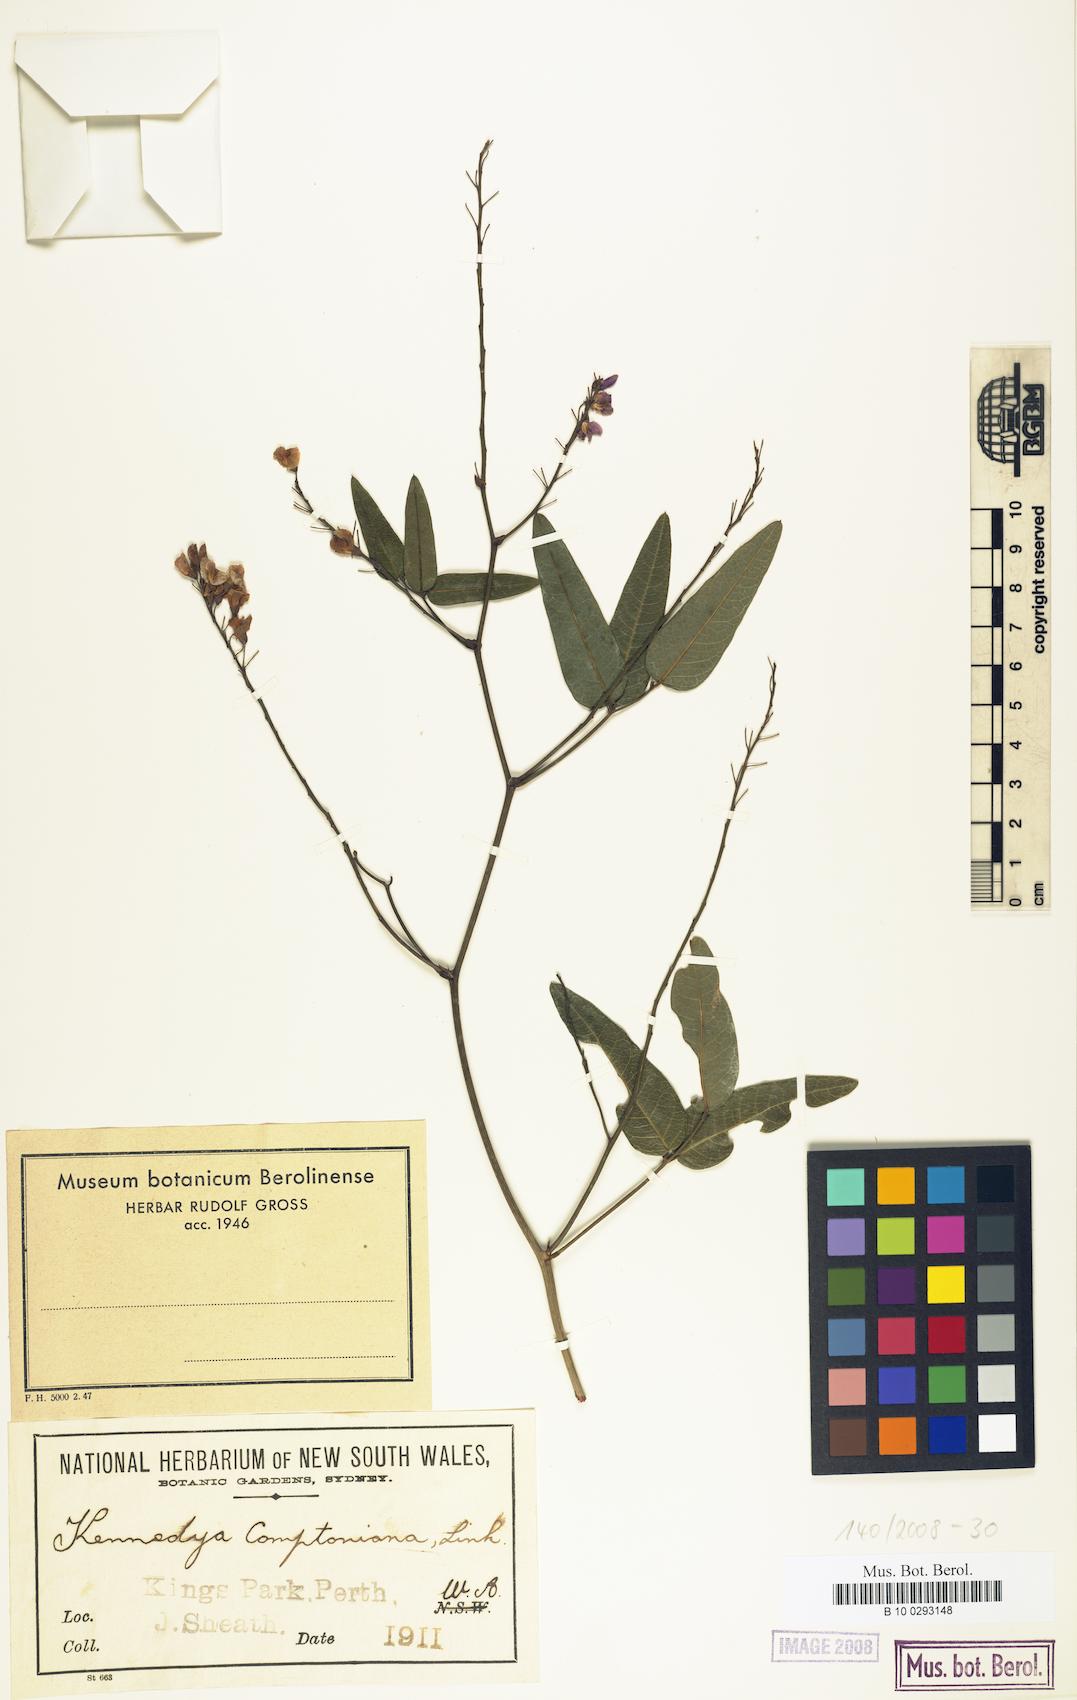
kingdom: Plantae
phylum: Tracheophyta
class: Magnoliopsida
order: Fabales
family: Fabaceae
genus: Hardenbergia
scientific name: Hardenbergia comptoniana
